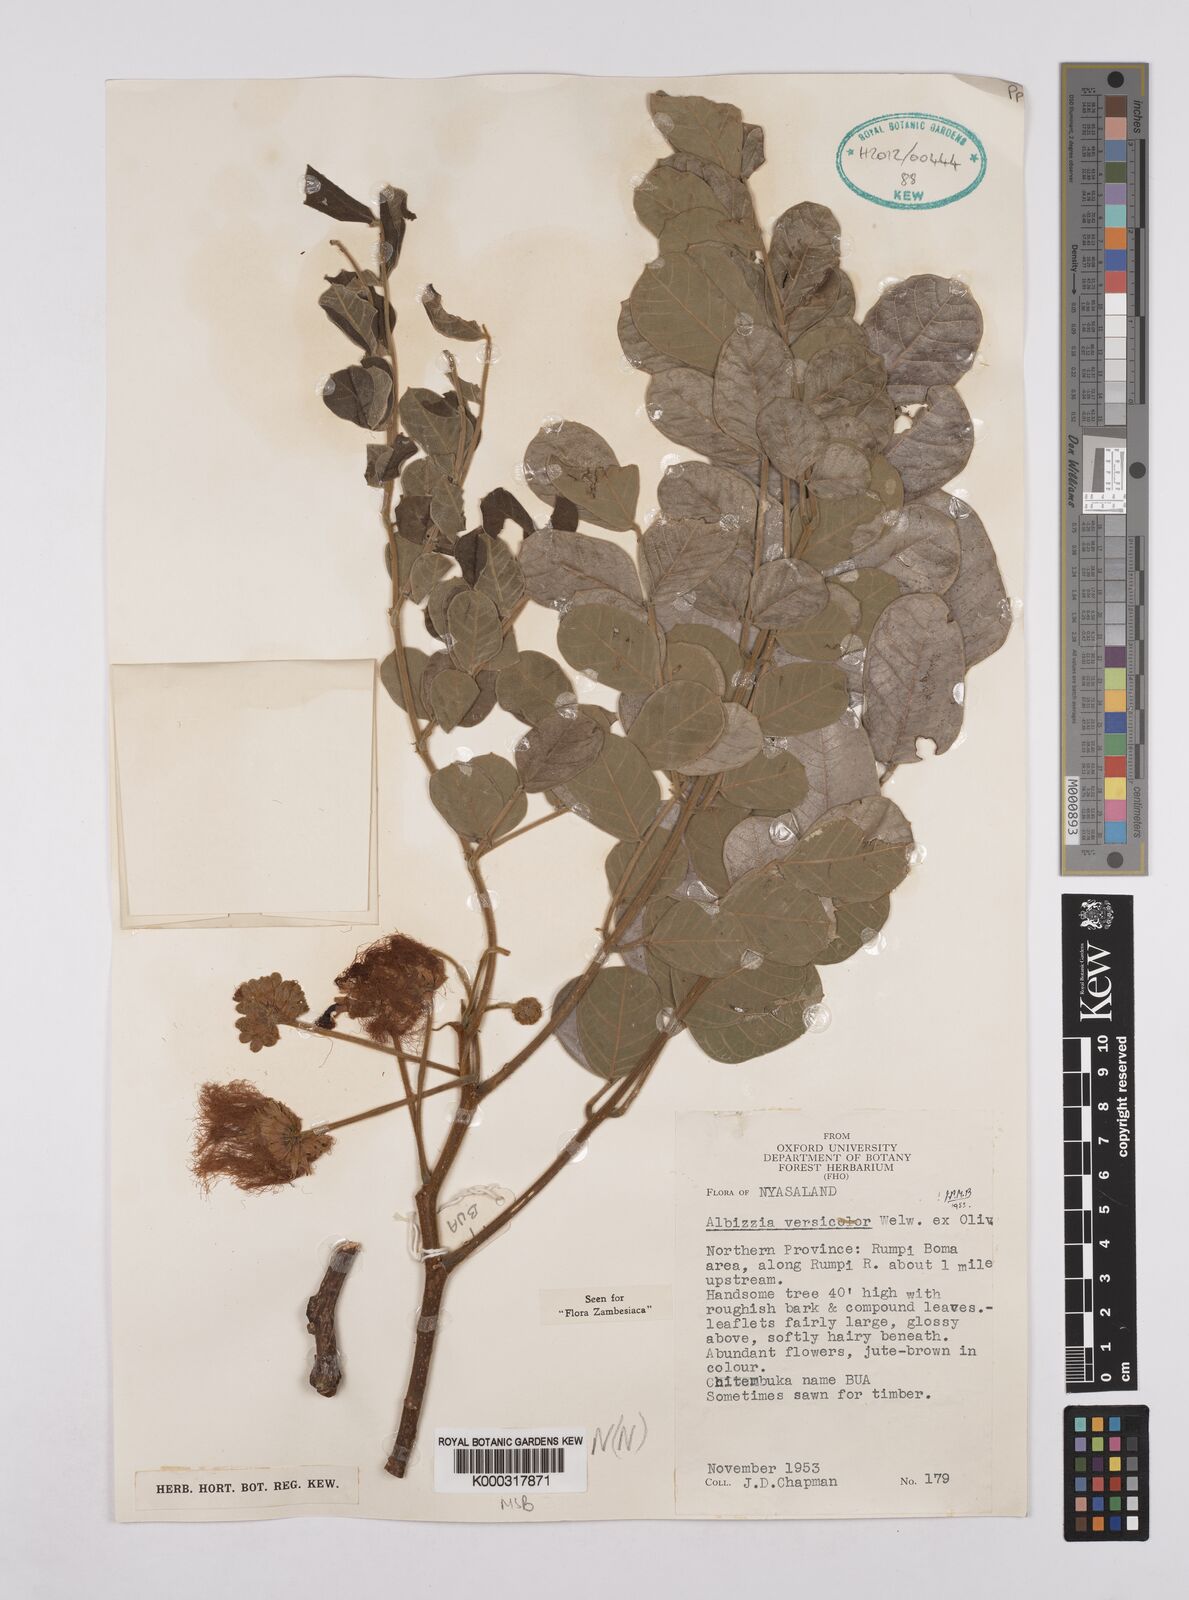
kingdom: Plantae
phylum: Tracheophyta
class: Magnoliopsida
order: Fabales
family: Fabaceae
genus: Albizia
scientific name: Albizia versicolor
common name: Poisonpod
